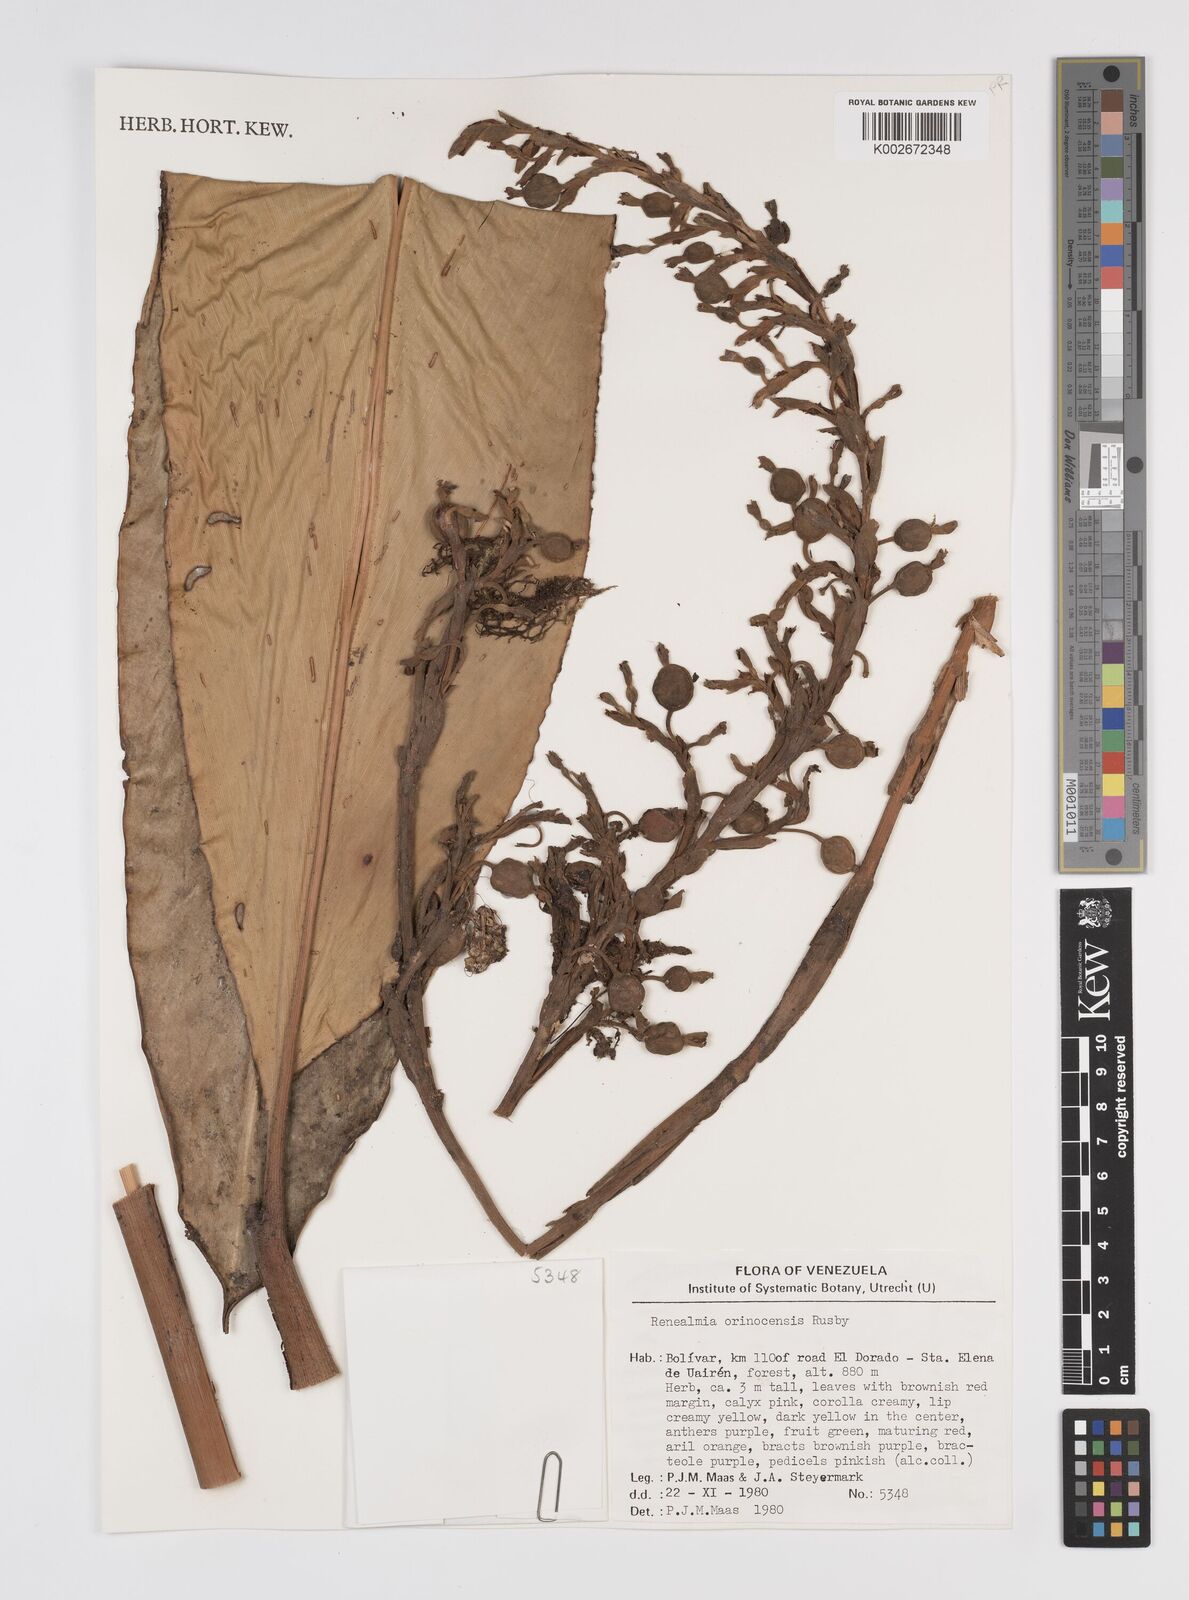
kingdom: Plantae
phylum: Tracheophyta
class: Liliopsida
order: Zingiberales
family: Zingiberaceae
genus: Renealmia
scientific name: Renealmia orinocensis
